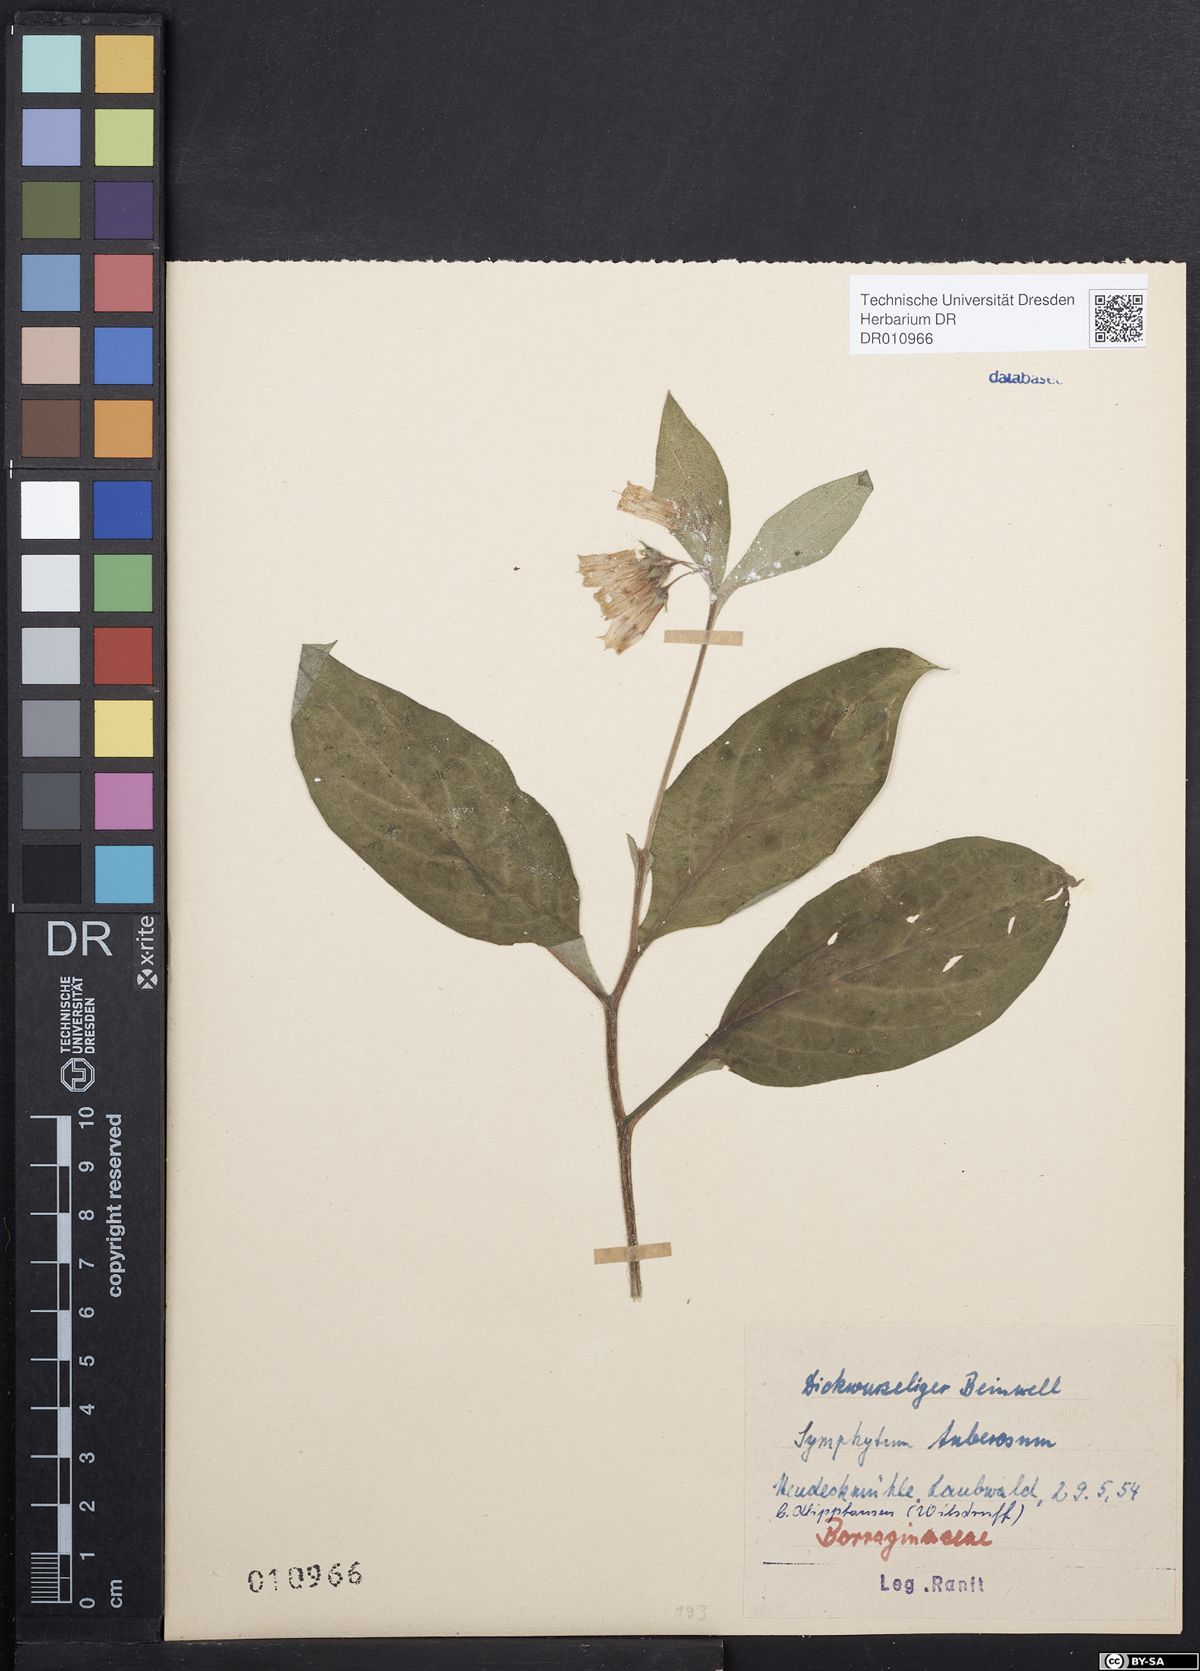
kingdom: Plantae
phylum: Tracheophyta
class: Magnoliopsida
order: Boraginales
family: Boraginaceae
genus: Symphytum
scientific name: Symphytum tuberosum
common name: Tuberous comfrey
